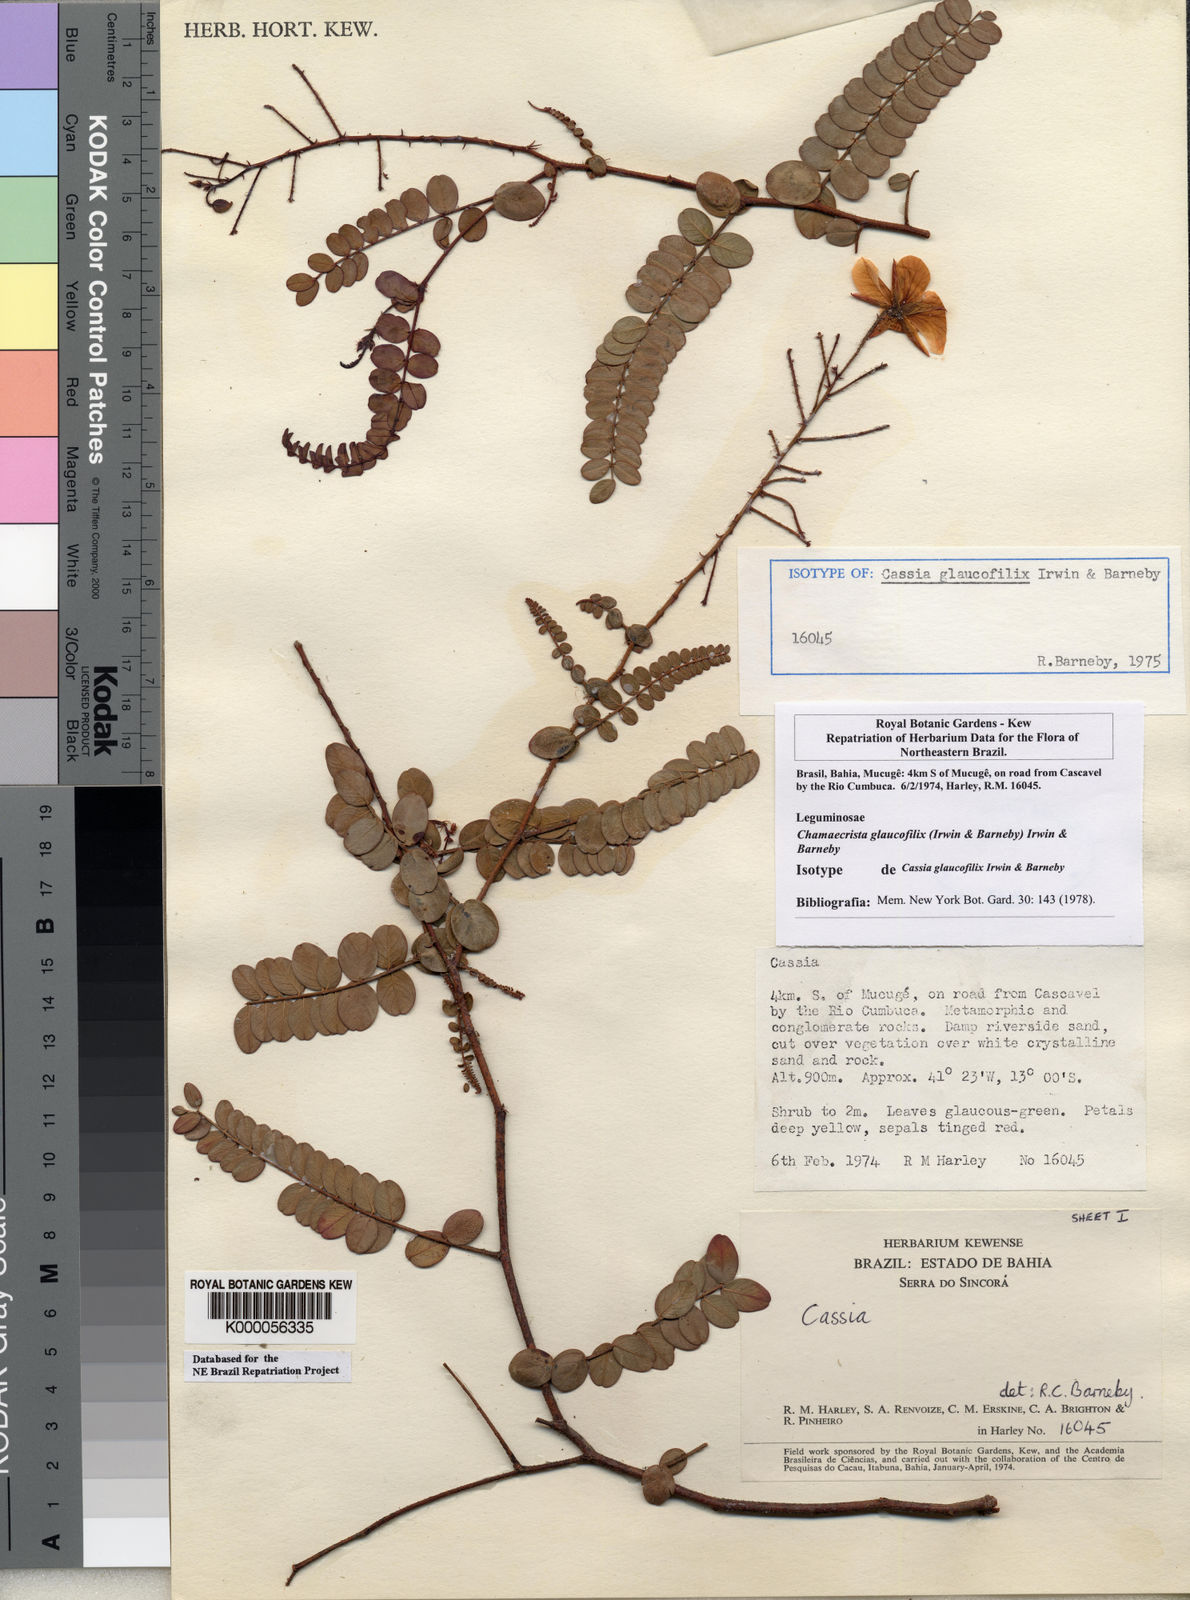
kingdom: Plantae
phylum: Tracheophyta
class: Magnoliopsida
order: Fabales
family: Fabaceae
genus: Chamaecrista
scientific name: Chamaecrista glaucofilix
